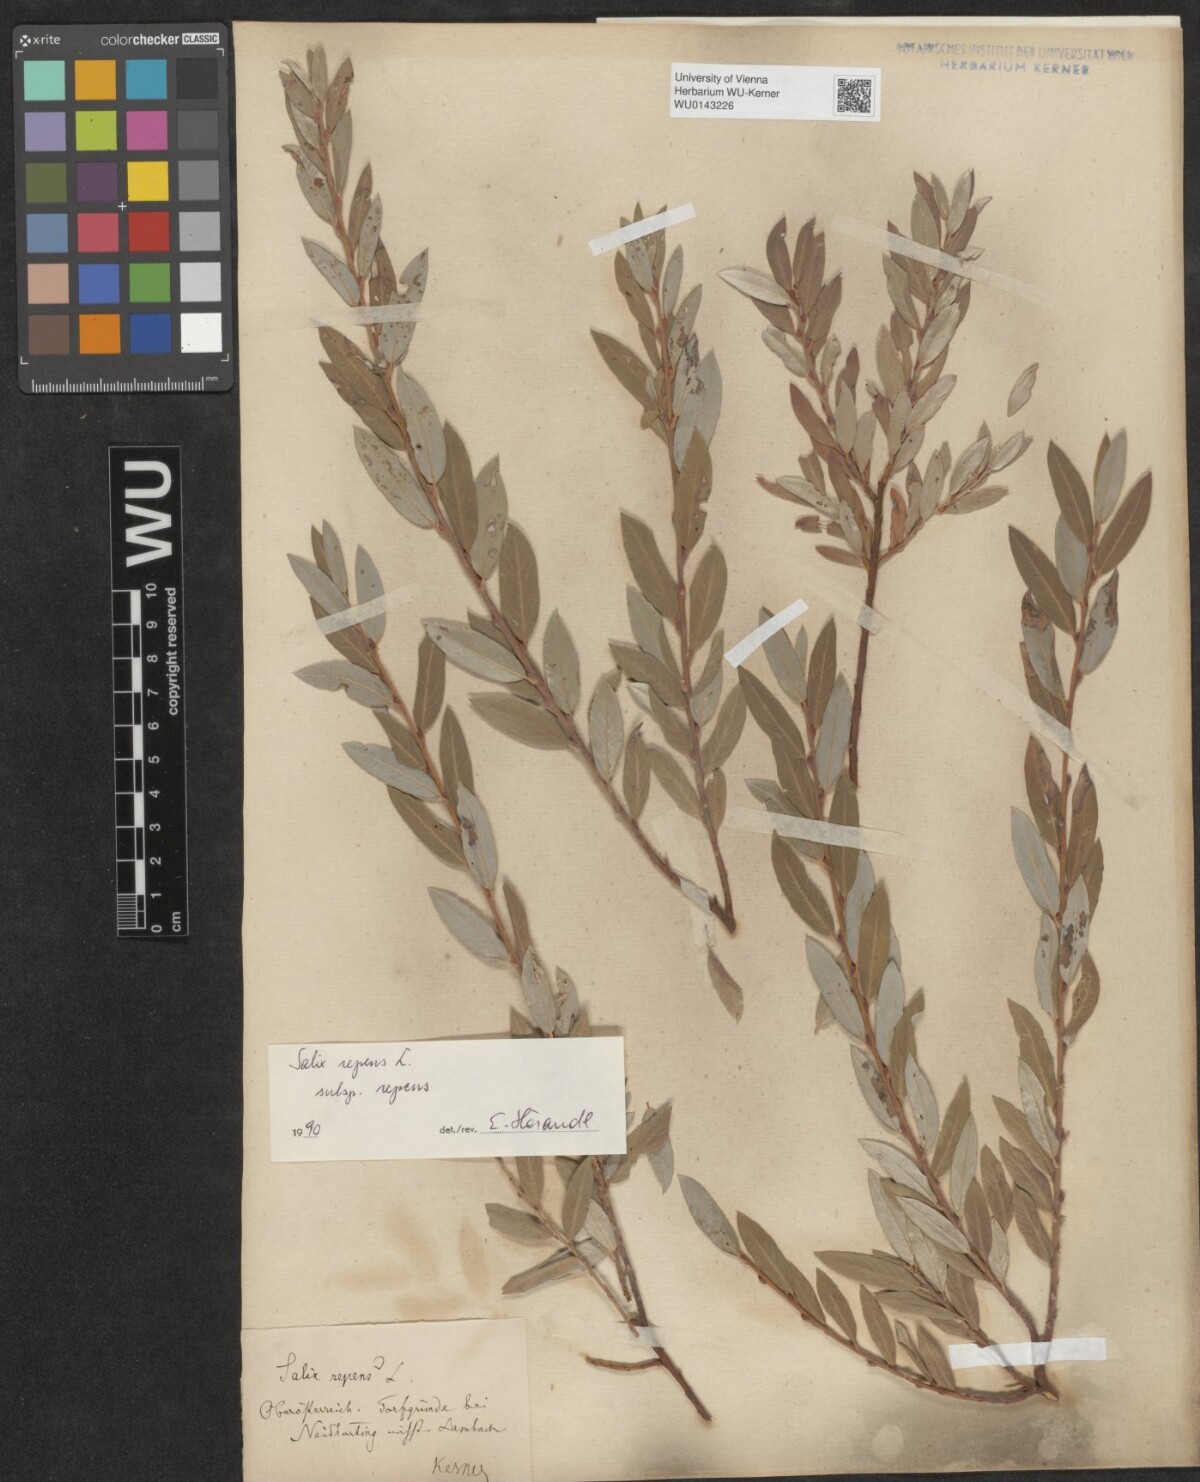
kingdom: Plantae
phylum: Tracheophyta
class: Magnoliopsida
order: Malpighiales
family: Salicaceae
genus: Salix
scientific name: Salix repens
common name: Creeping willow
